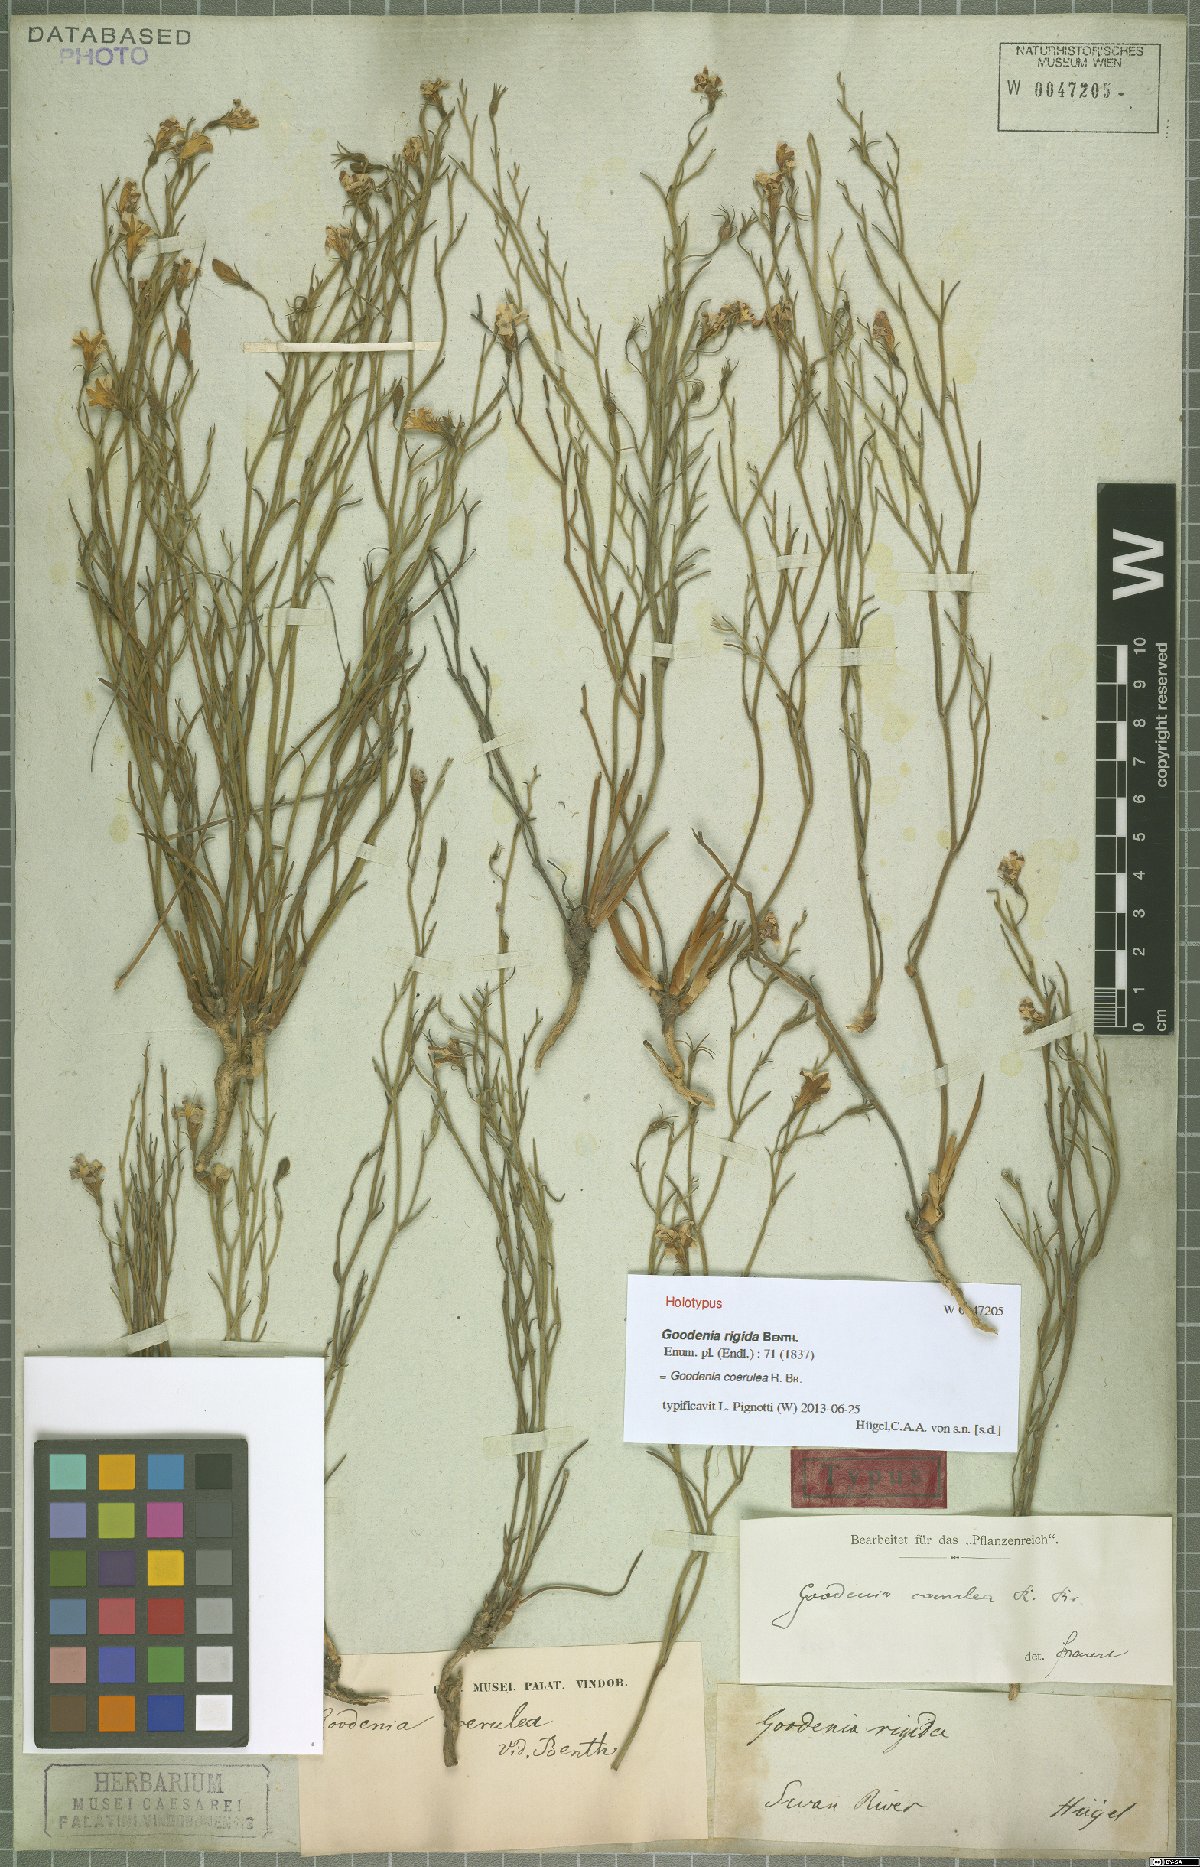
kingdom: Plantae
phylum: Tracheophyta
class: Magnoliopsida
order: Asterales
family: Goodeniaceae
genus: Goodenia
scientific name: Goodenia coerulea
